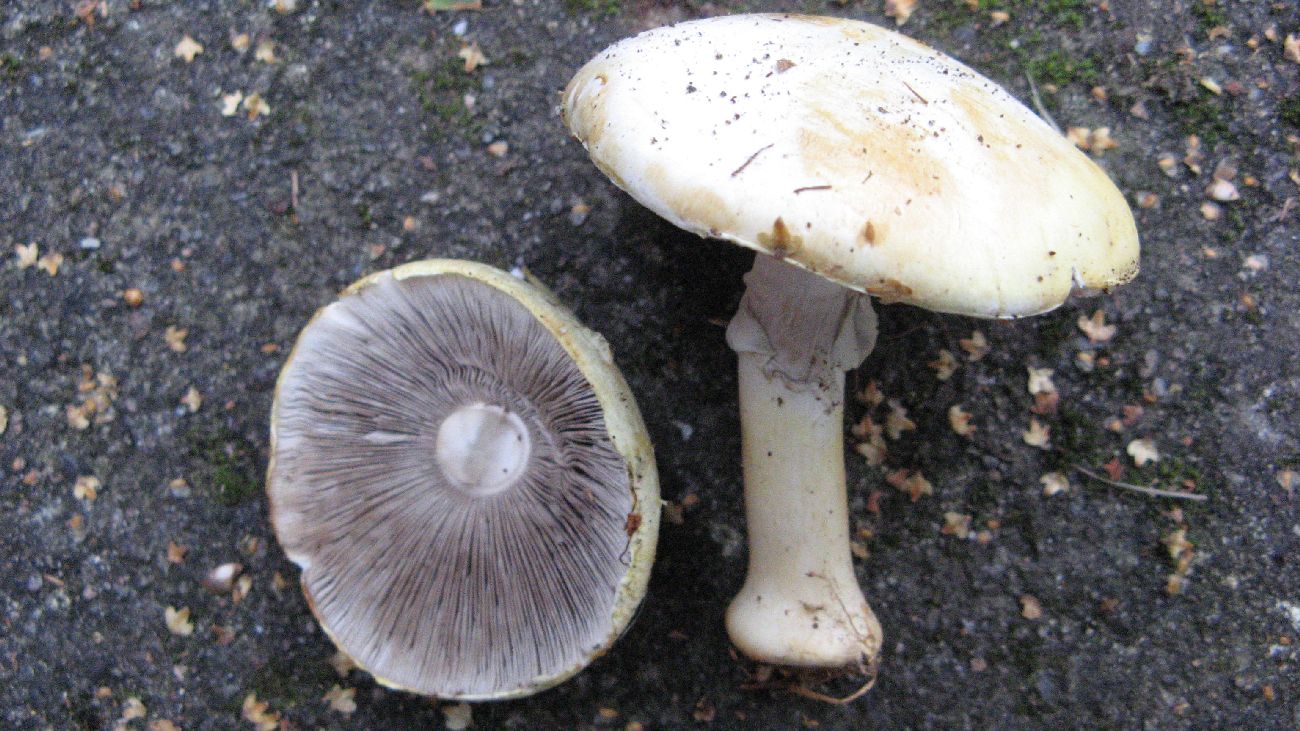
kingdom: Fungi
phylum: Basidiomycota
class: Agaricomycetes
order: Agaricales
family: Agaricaceae
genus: Agaricus
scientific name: Agaricus sylvicola
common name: skiveknoldet champignon
